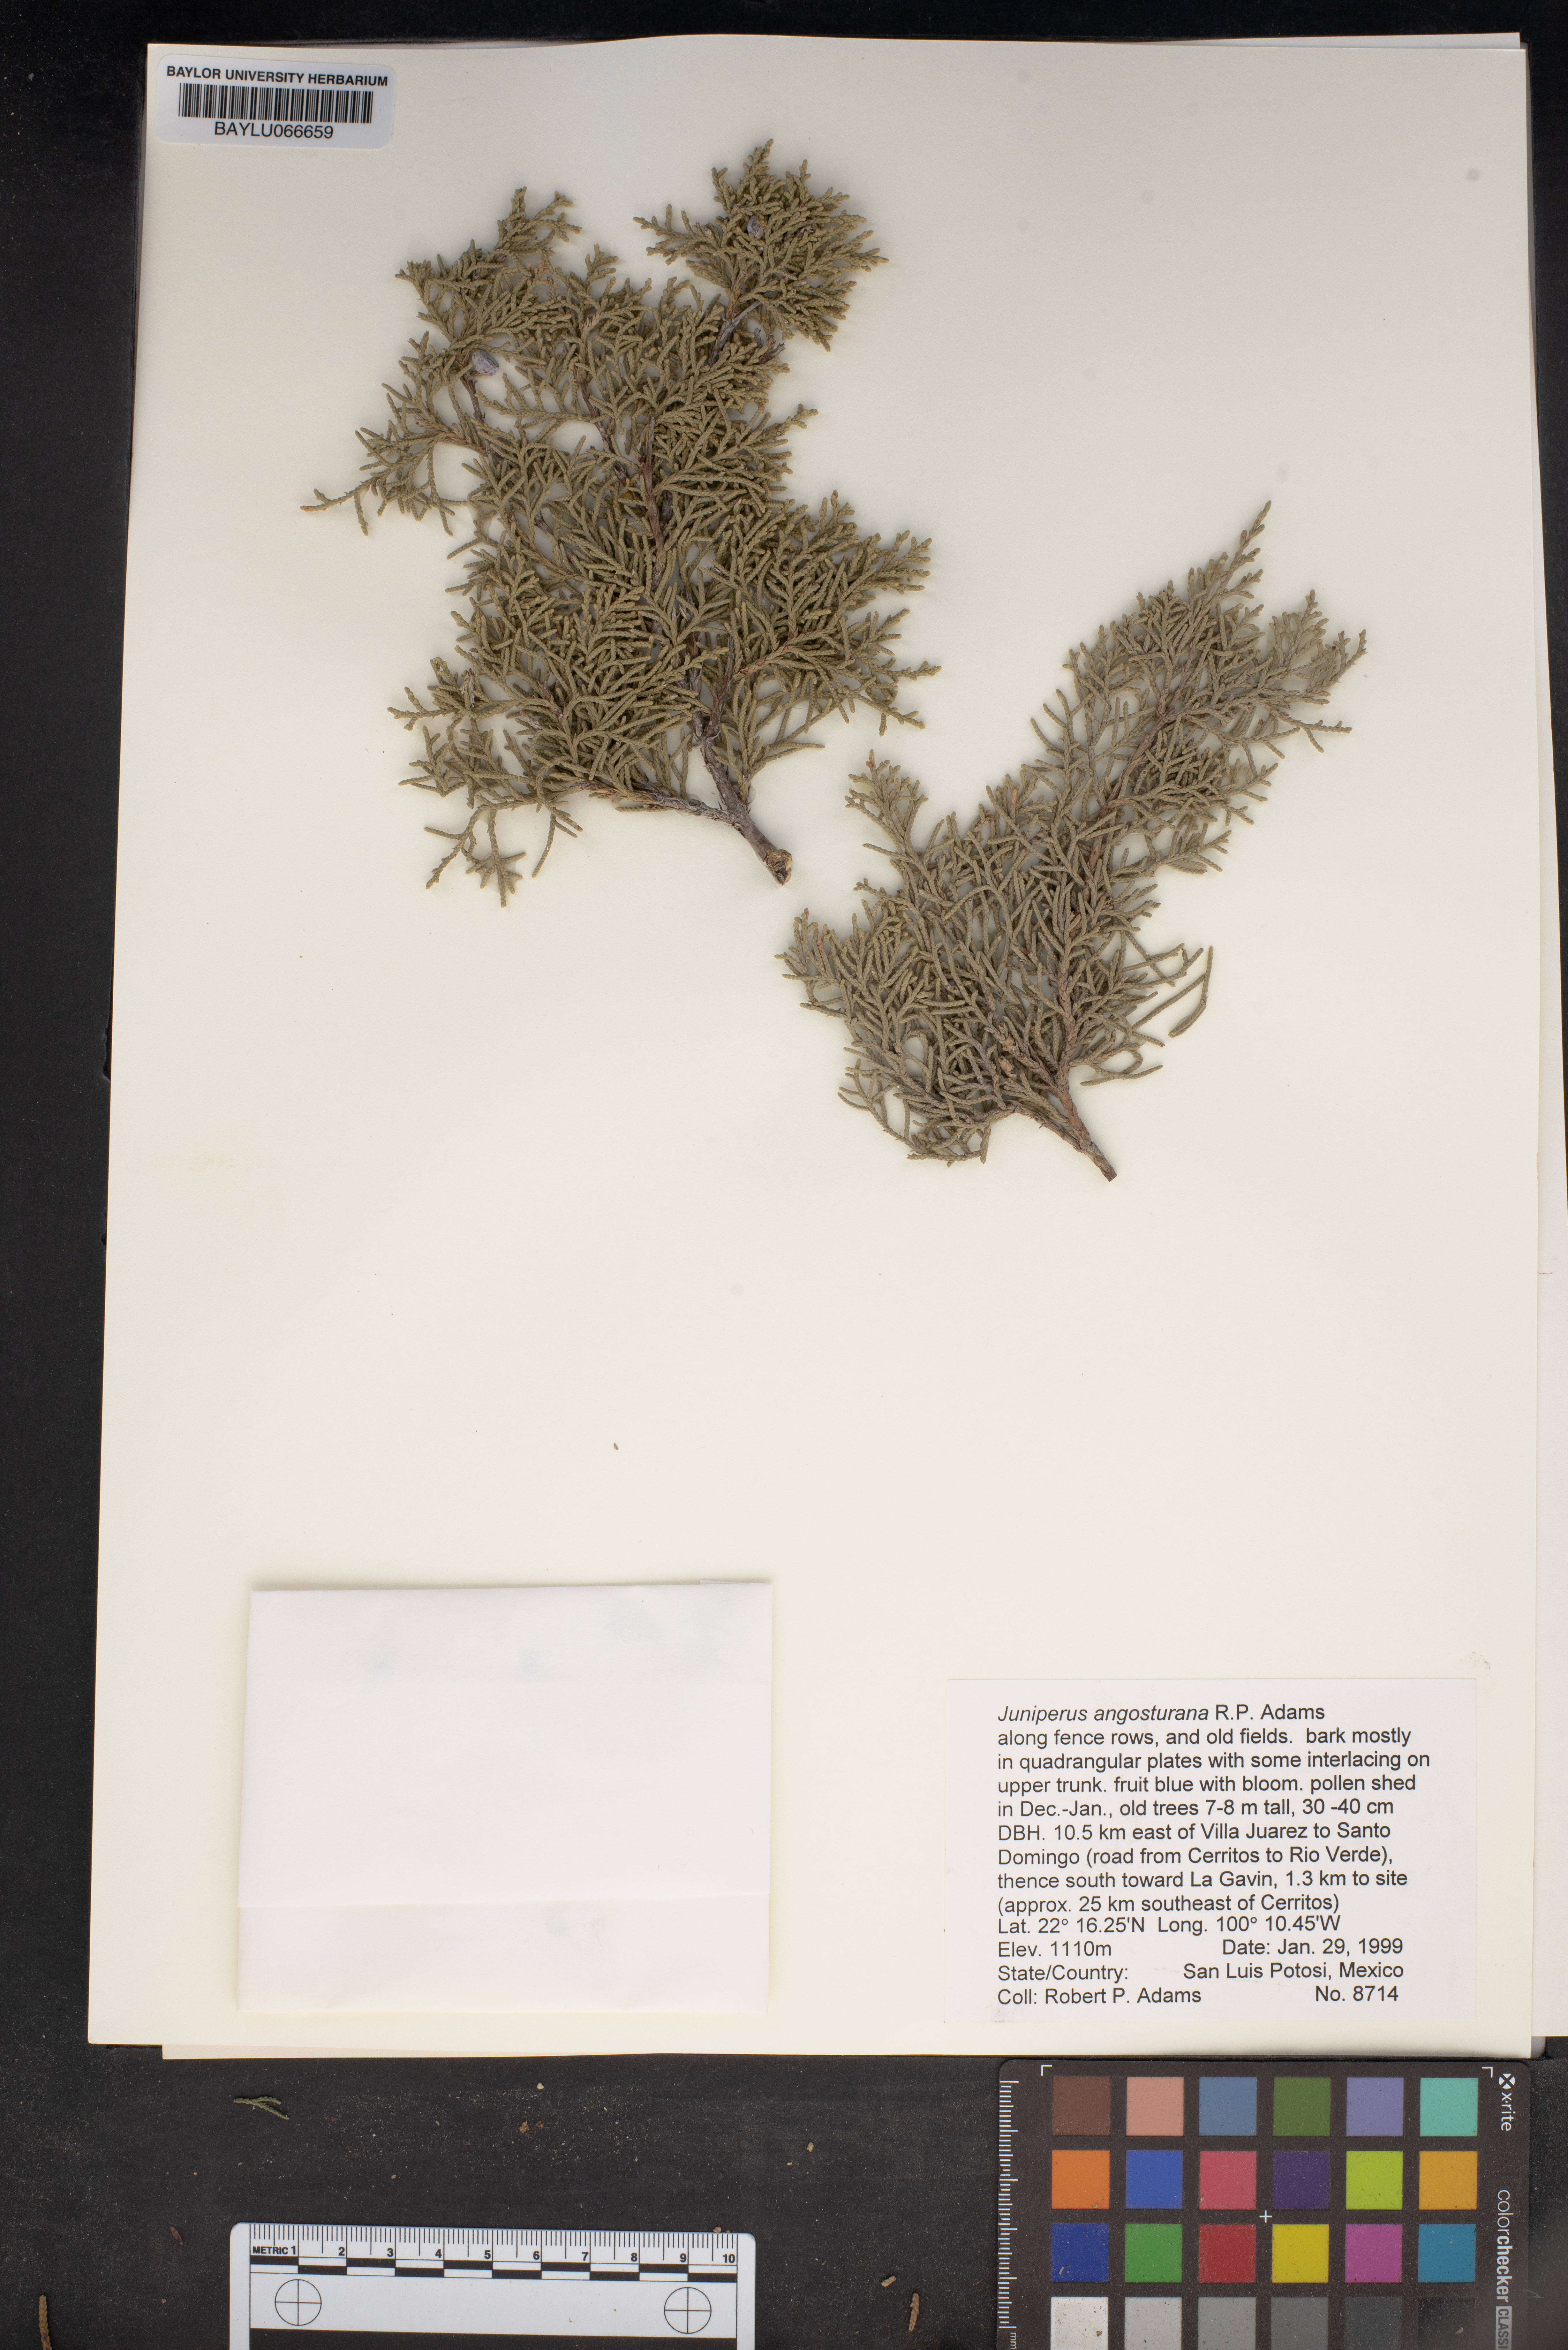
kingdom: Plantae
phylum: Tracheophyta
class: Pinopsida
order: Pinales
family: Cupressaceae
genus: Juniperus
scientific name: Juniperus angosturana
